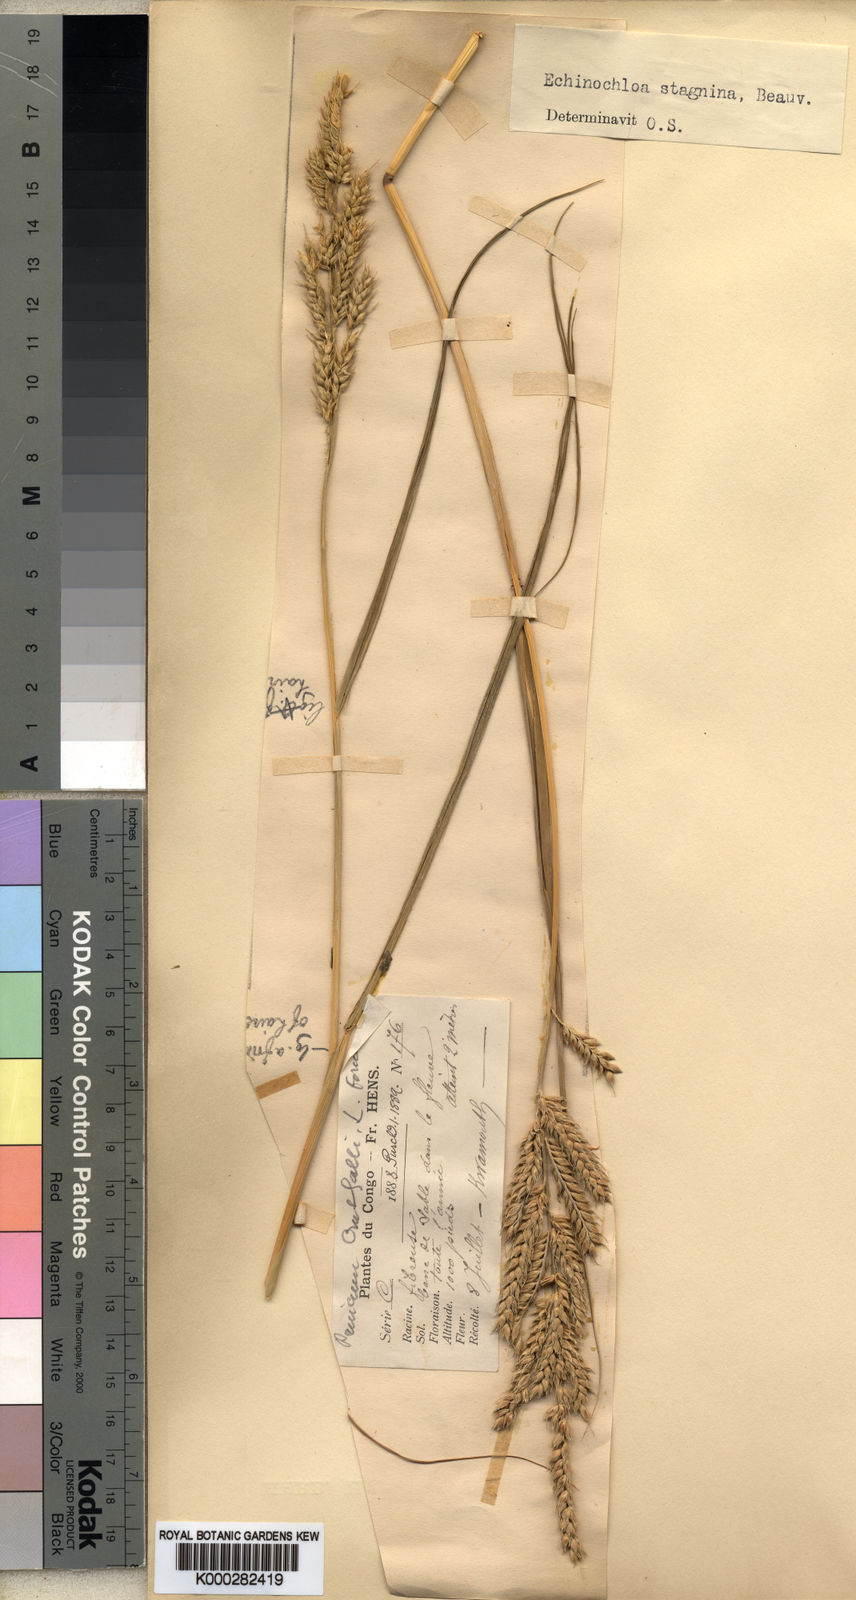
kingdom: Plantae
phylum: Tracheophyta
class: Liliopsida
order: Poales
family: Poaceae
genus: Echinochloa
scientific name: Echinochloa stagnina
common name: Burgu grass
